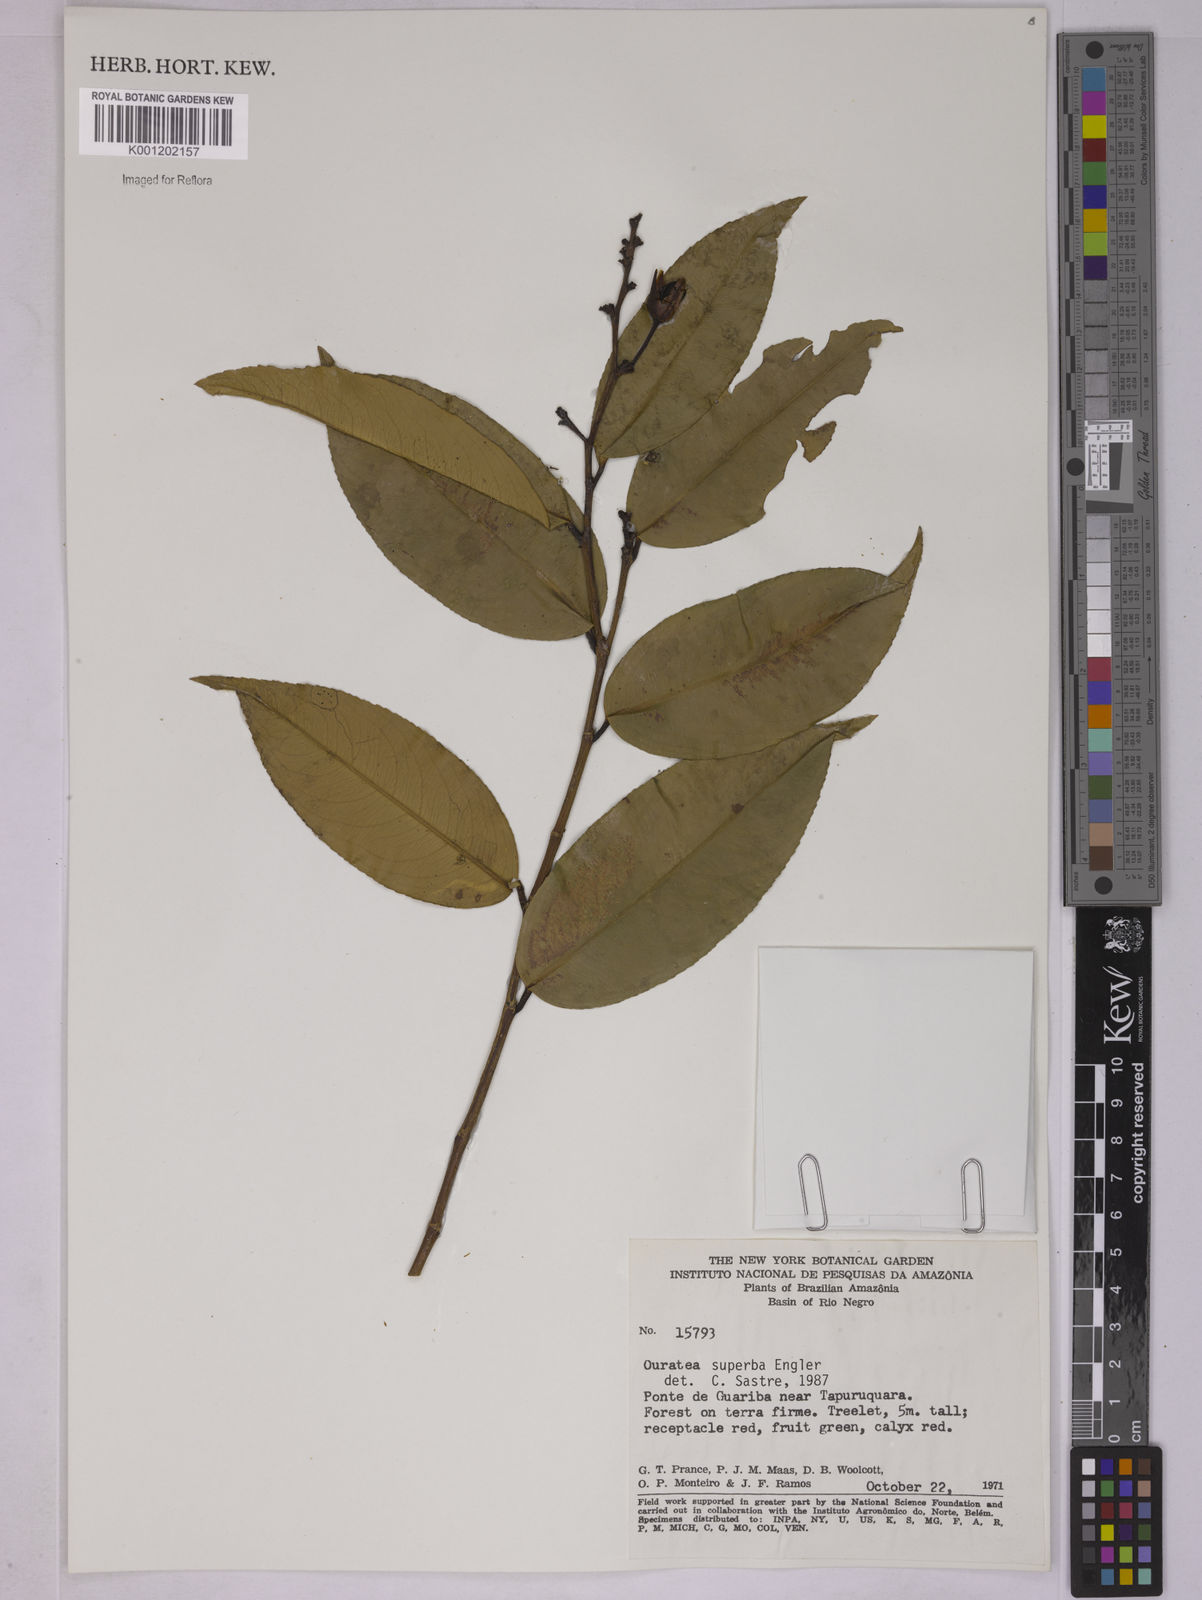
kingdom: Plantae
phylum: Tracheophyta
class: Magnoliopsida
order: Malpighiales
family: Ochnaceae
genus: Ouratea
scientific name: Ouratea superba
